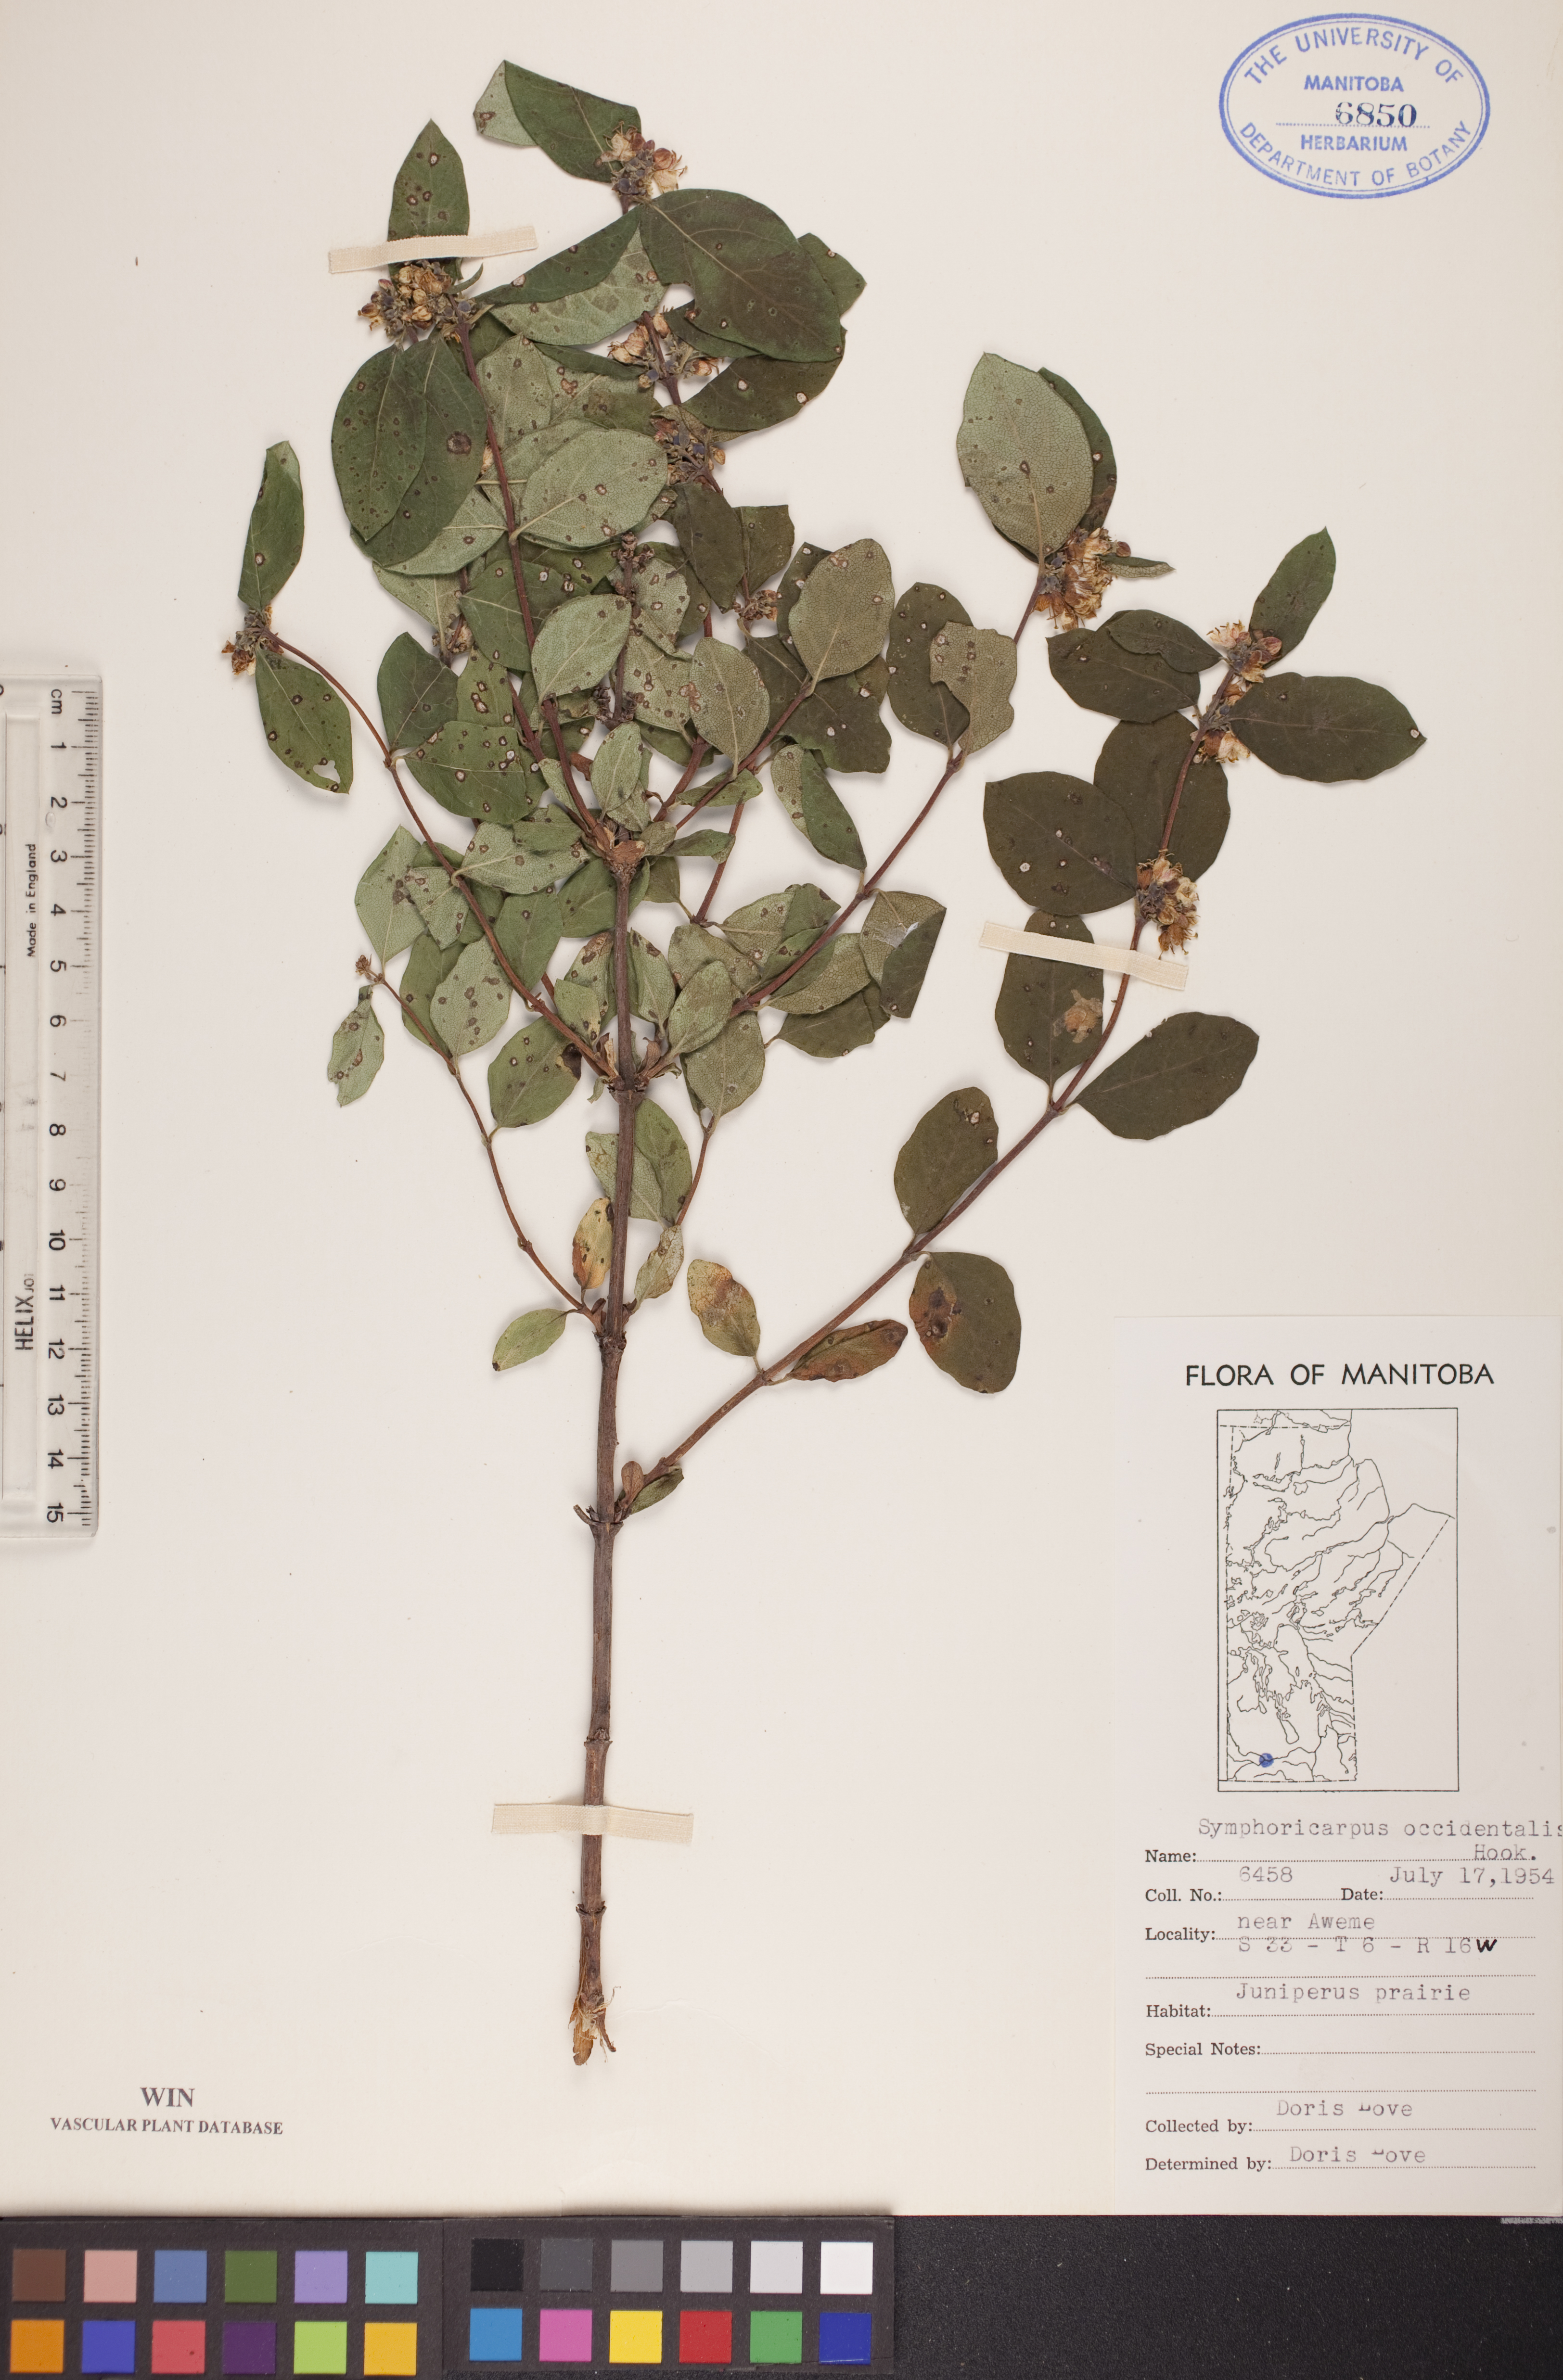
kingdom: Plantae
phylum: Tracheophyta
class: Magnoliopsida
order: Dipsacales
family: Caprifoliaceae
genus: Symphoricarpos
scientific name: Symphoricarpos occidentalis
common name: Wolfberry
